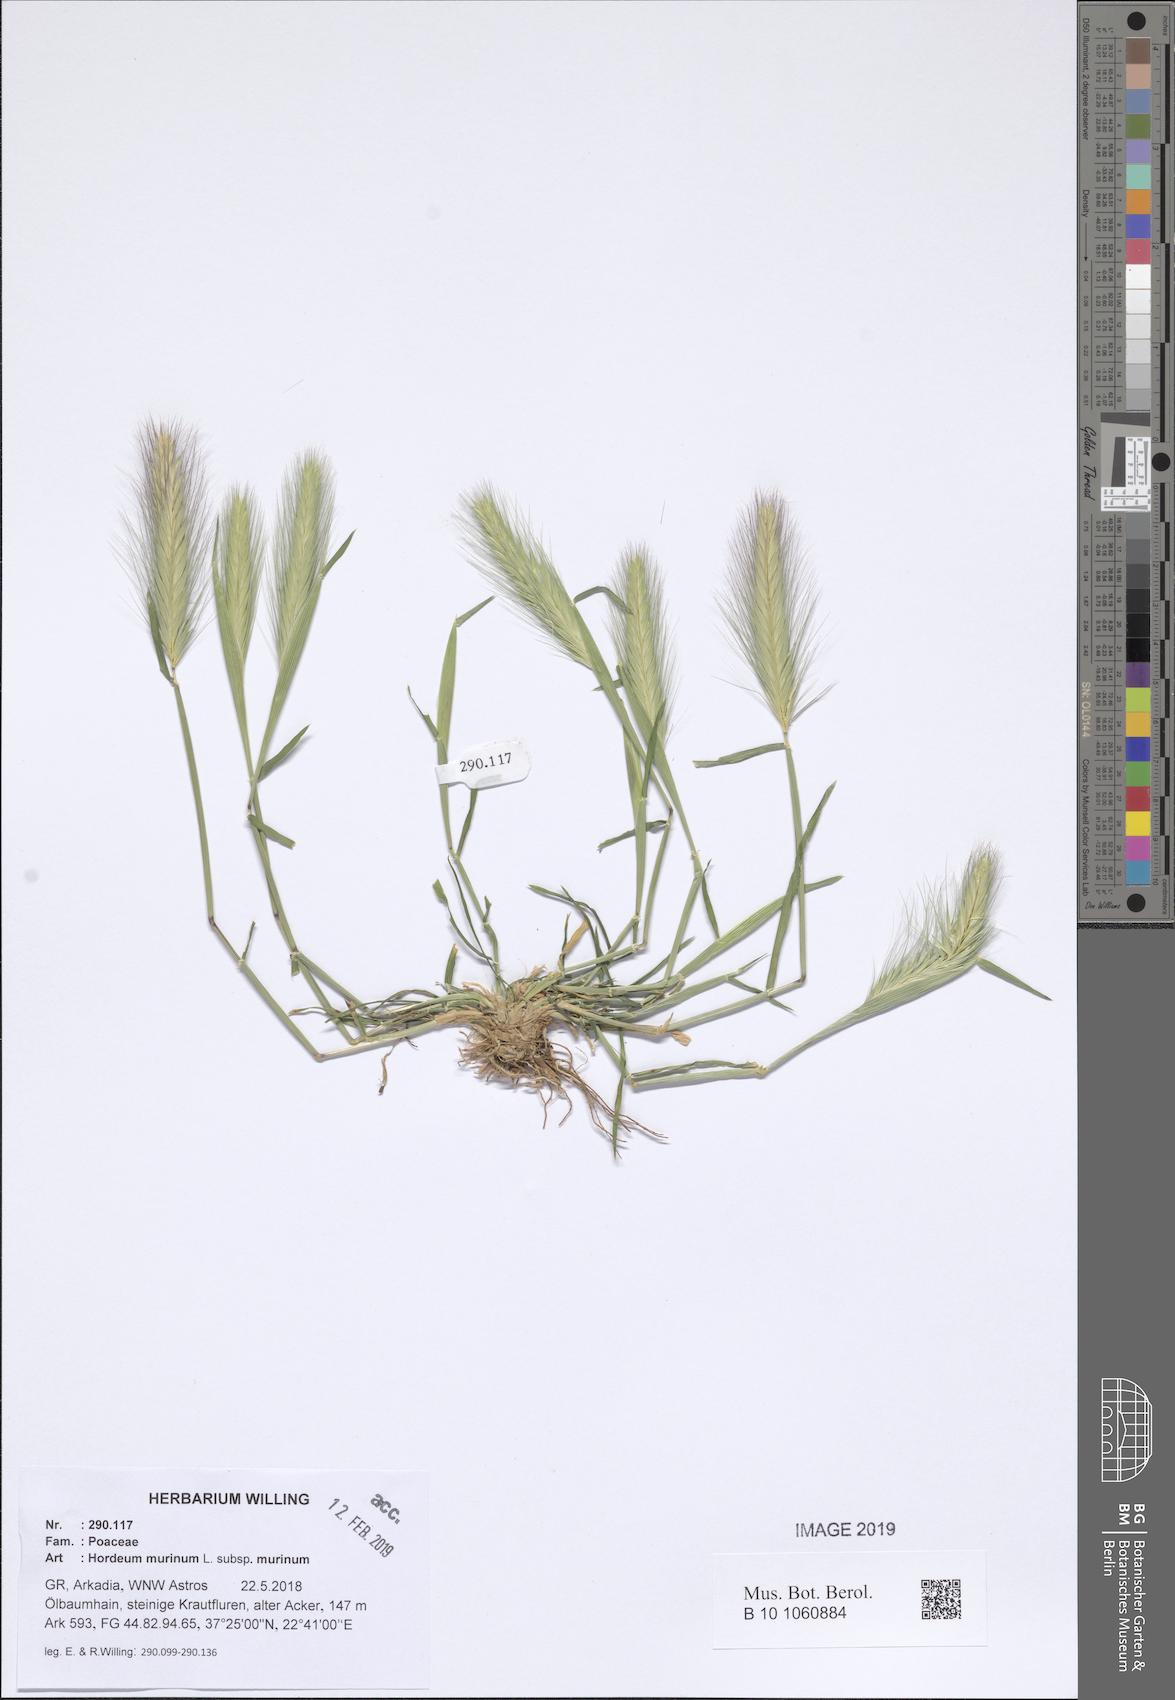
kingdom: Plantae
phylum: Tracheophyta
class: Liliopsida
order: Poales
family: Poaceae
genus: Hordeum
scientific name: Hordeum murinum
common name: Wall barley
